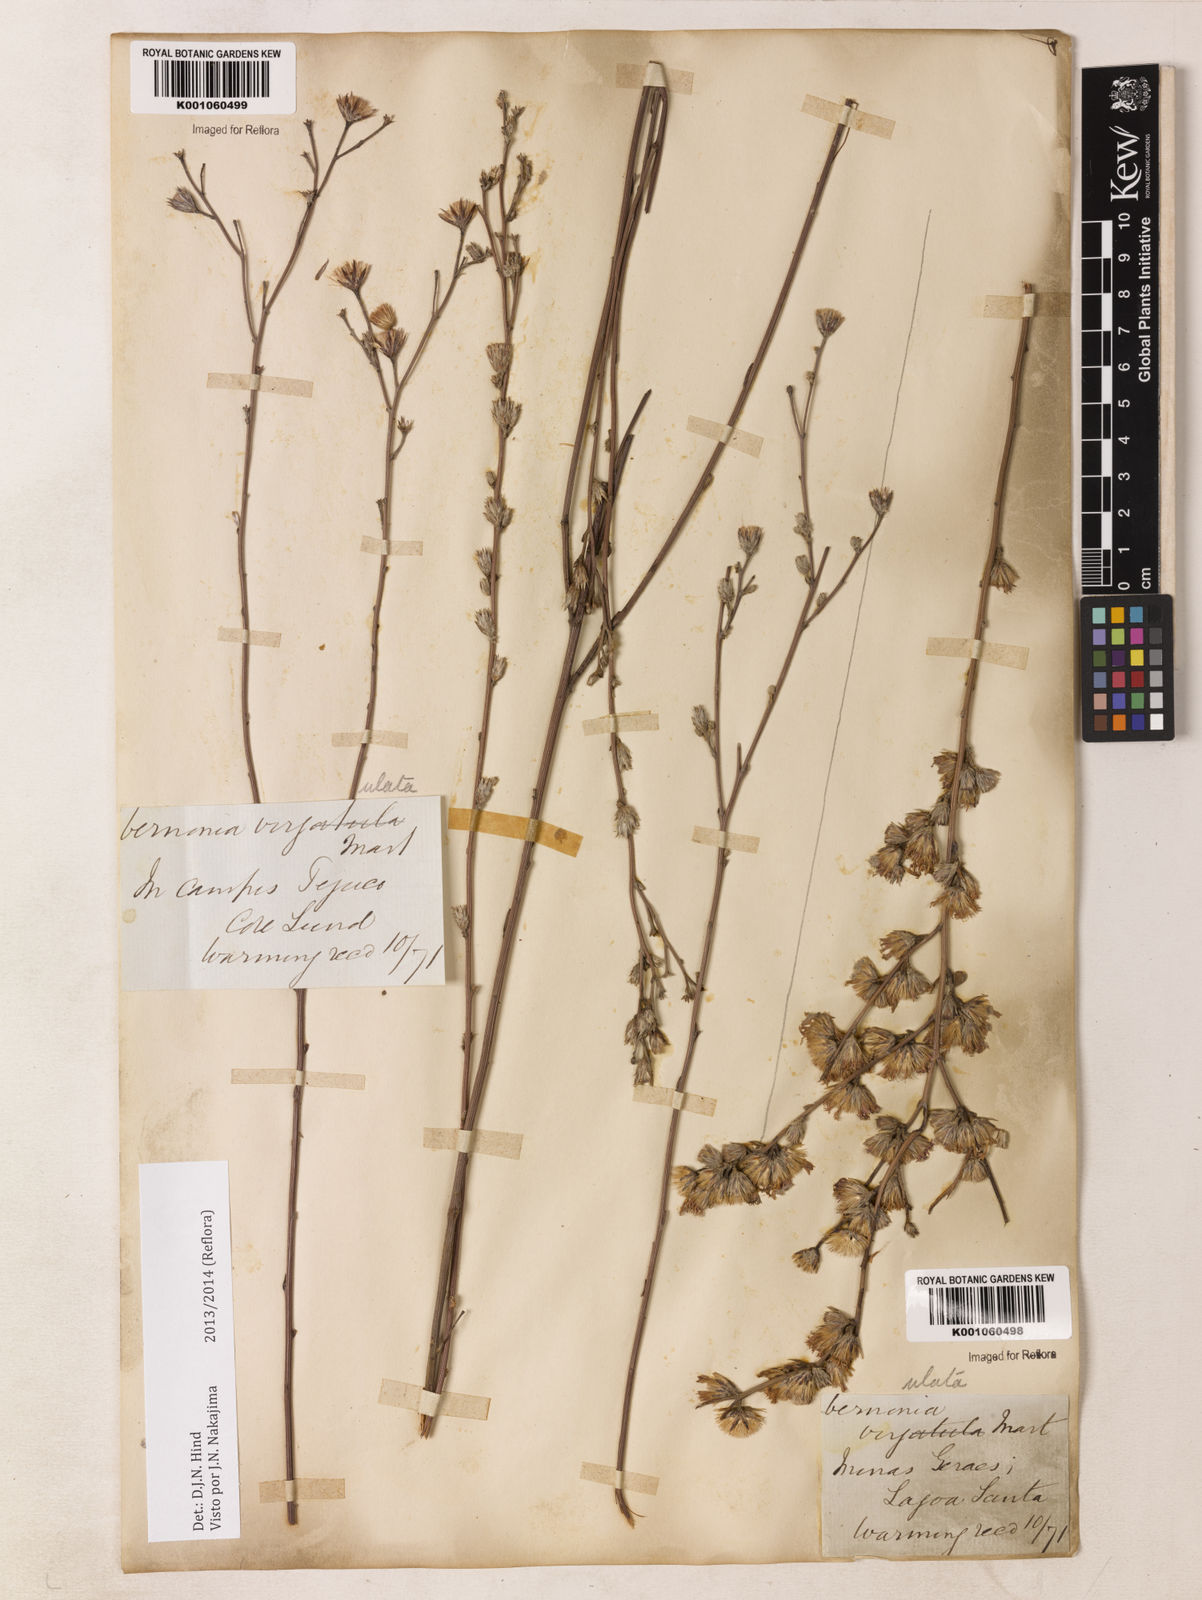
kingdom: Plantae
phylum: Tracheophyta
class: Magnoliopsida
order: Asterales
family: Asteraceae
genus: Lessingianthus
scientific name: Lessingianthus virgulatus
